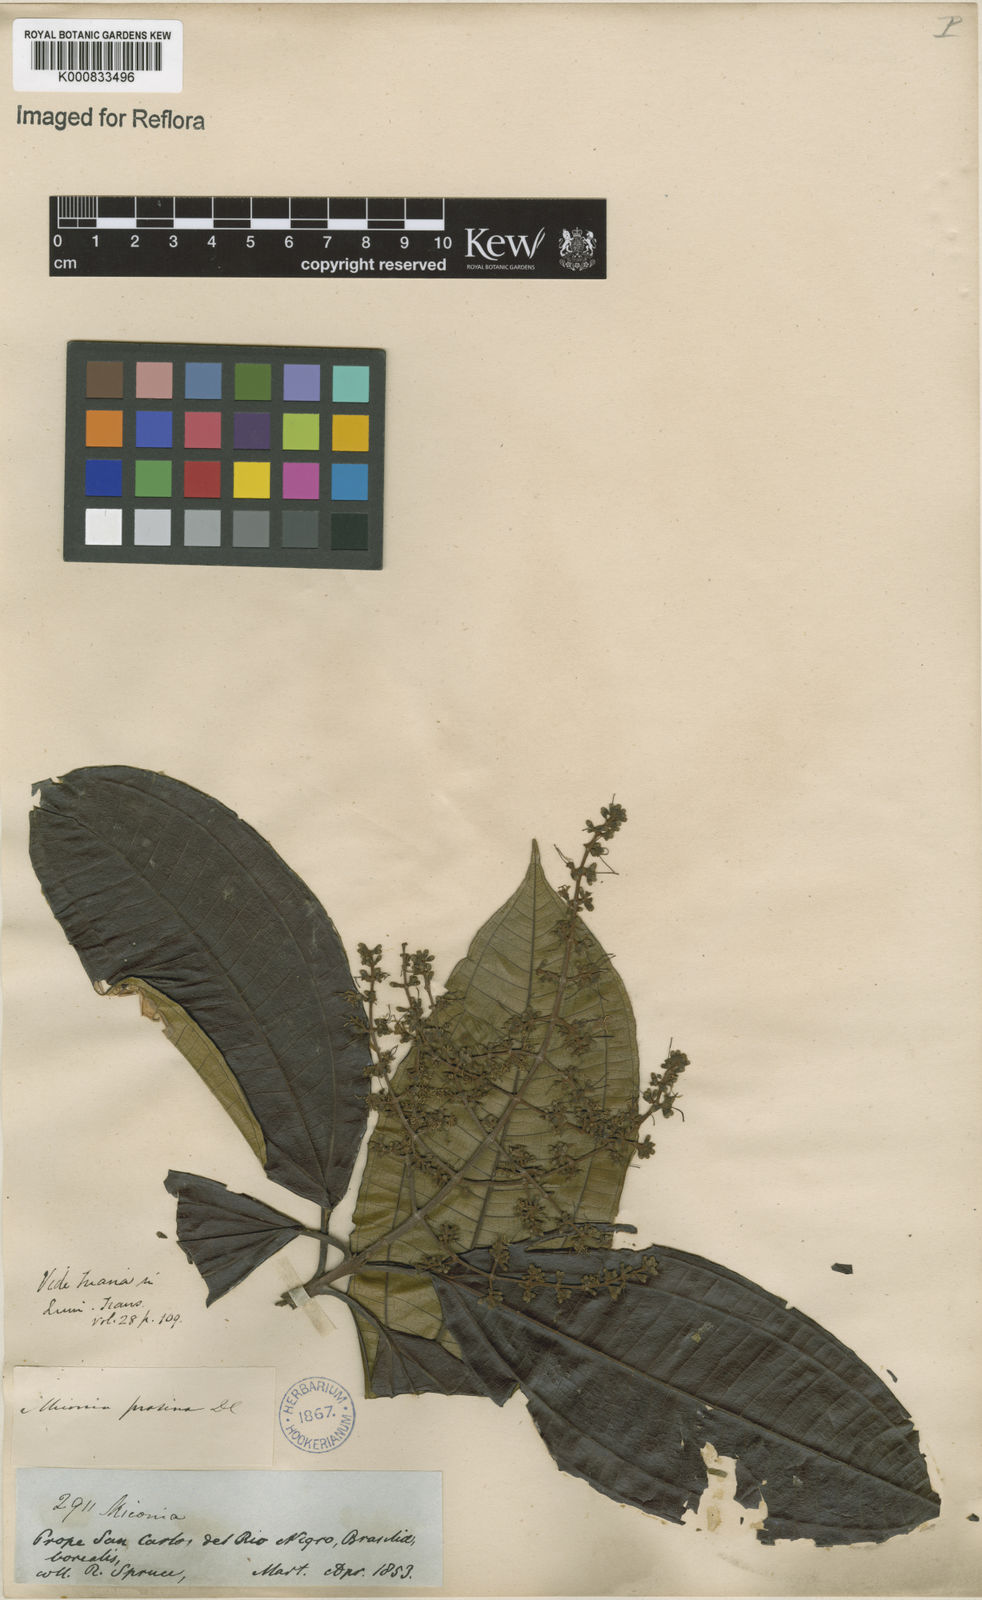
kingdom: Plantae
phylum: Tracheophyta
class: Magnoliopsida
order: Myrtales
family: Melastomataceae
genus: Miconia
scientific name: Miconia prasina
